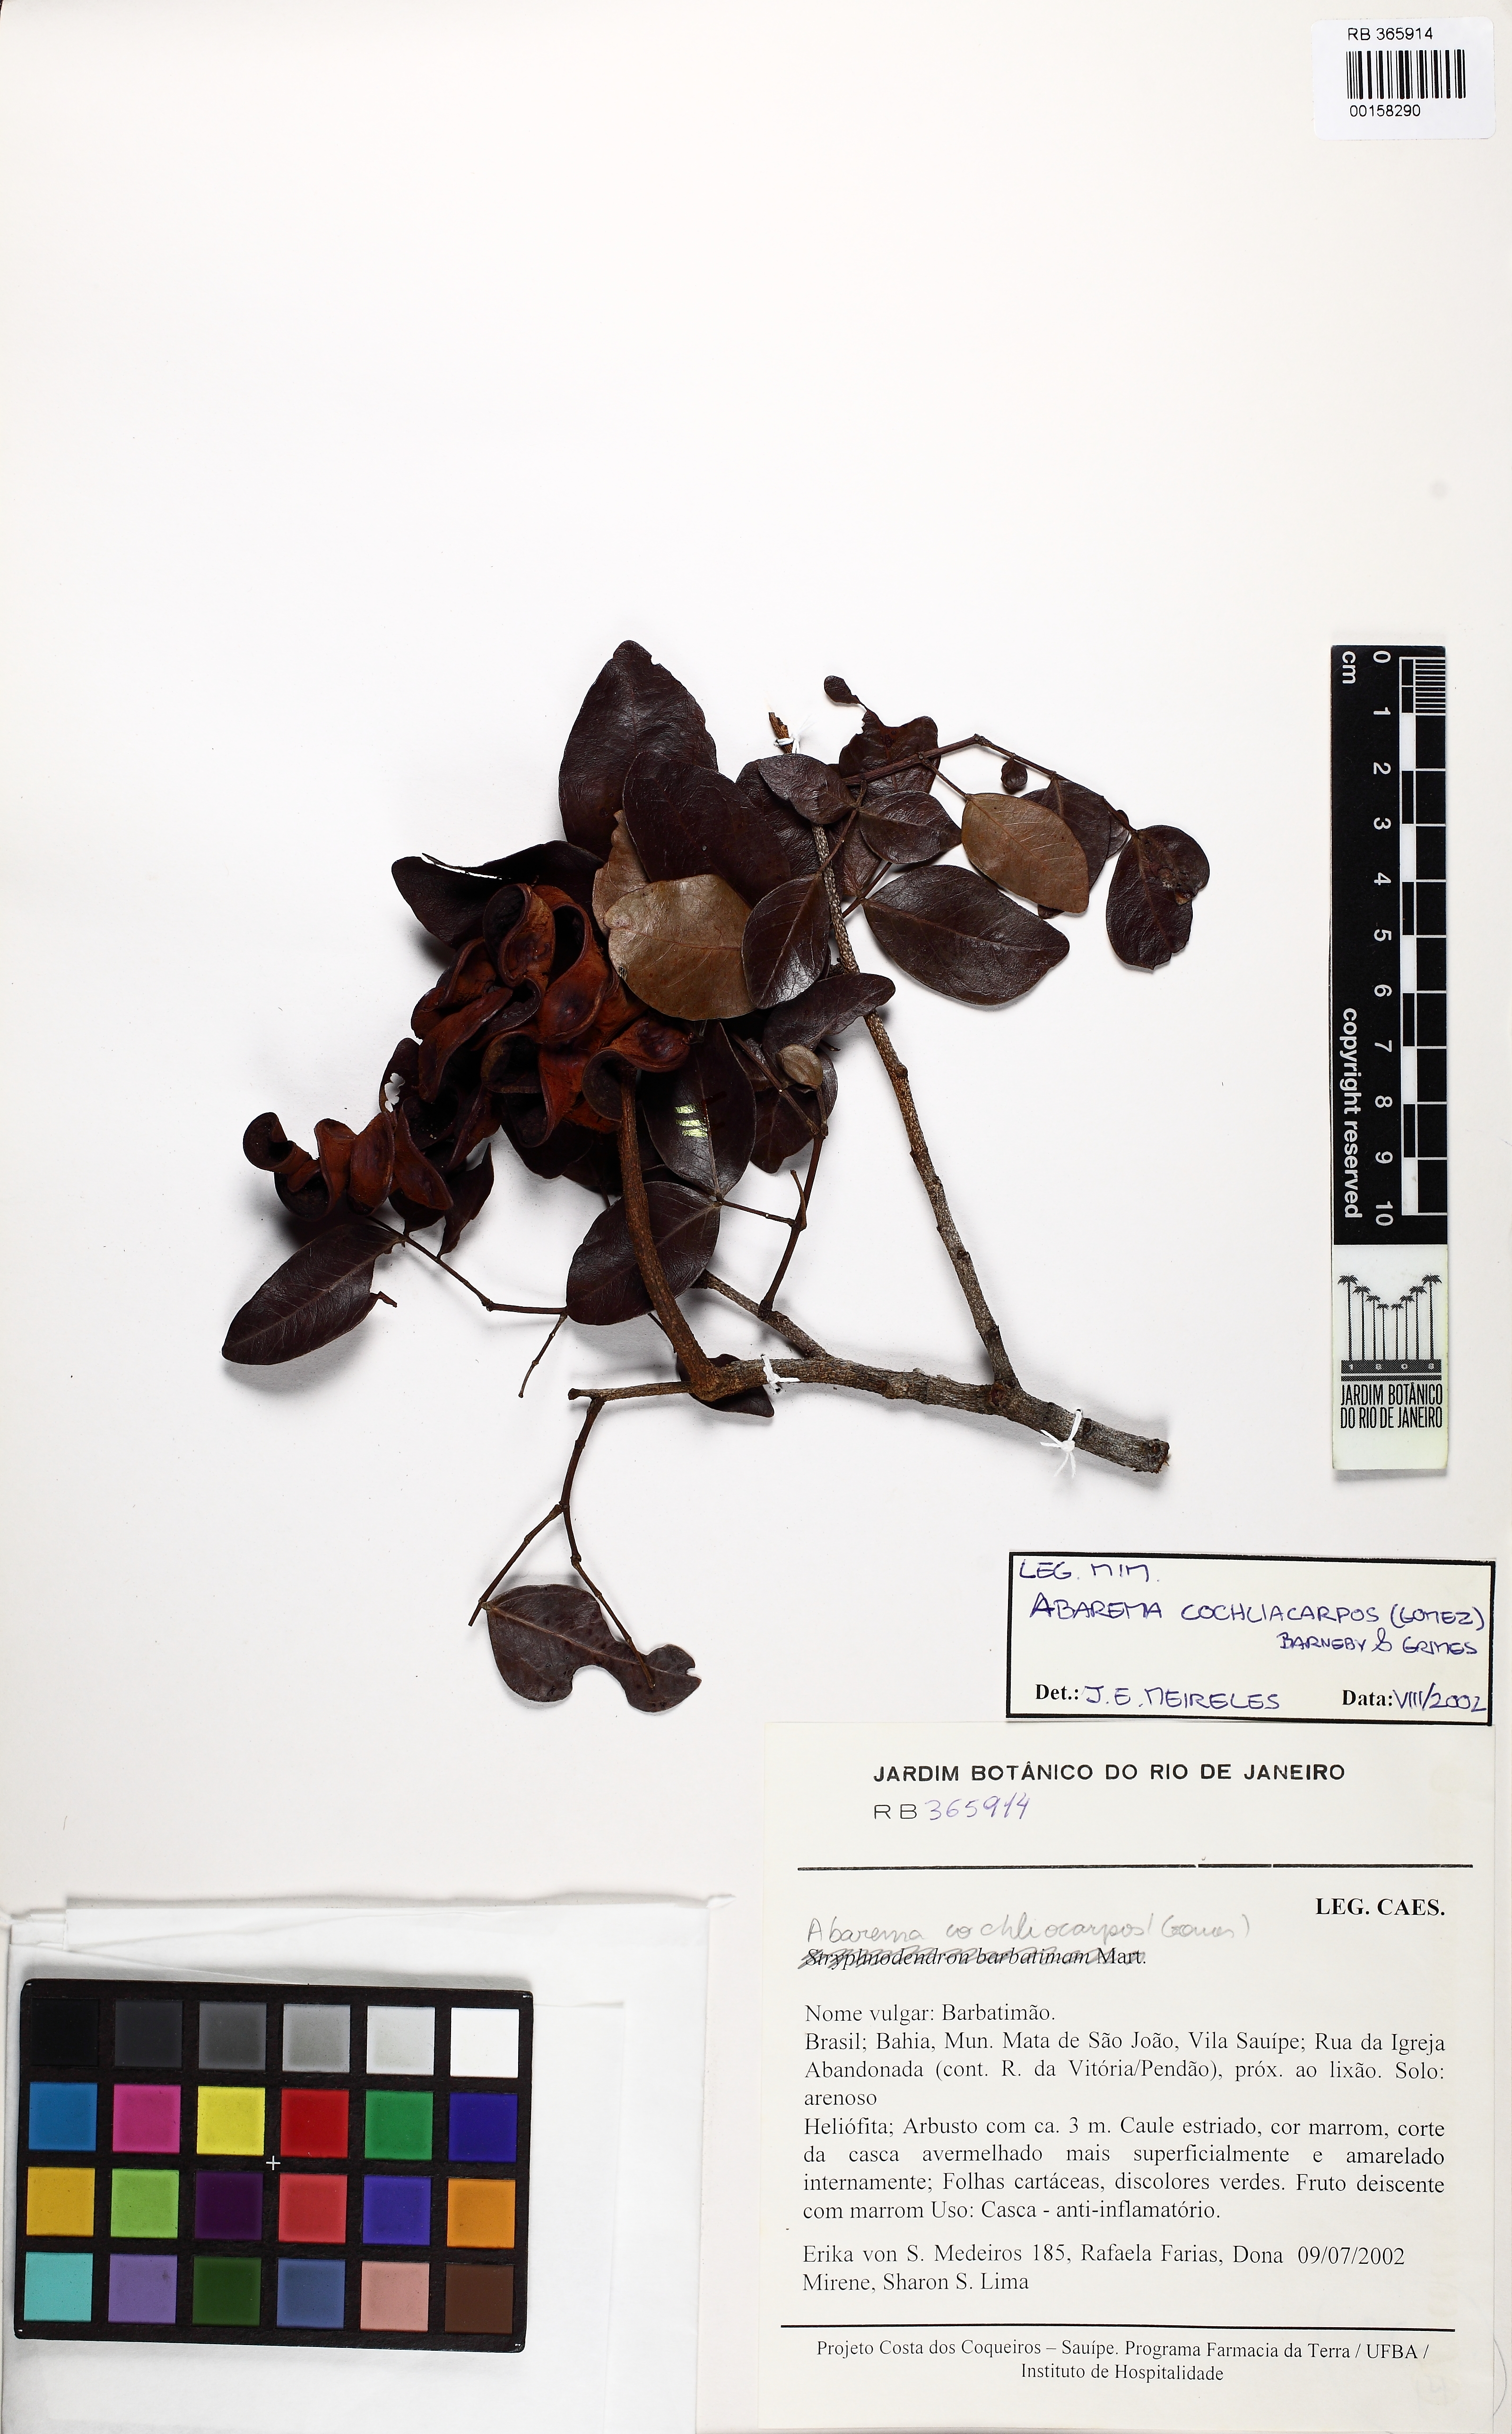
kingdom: Plantae
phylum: Tracheophyta
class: Magnoliopsida
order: Fabales
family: Fabaceae
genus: Abarema
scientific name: Abarema cochliacarpos
